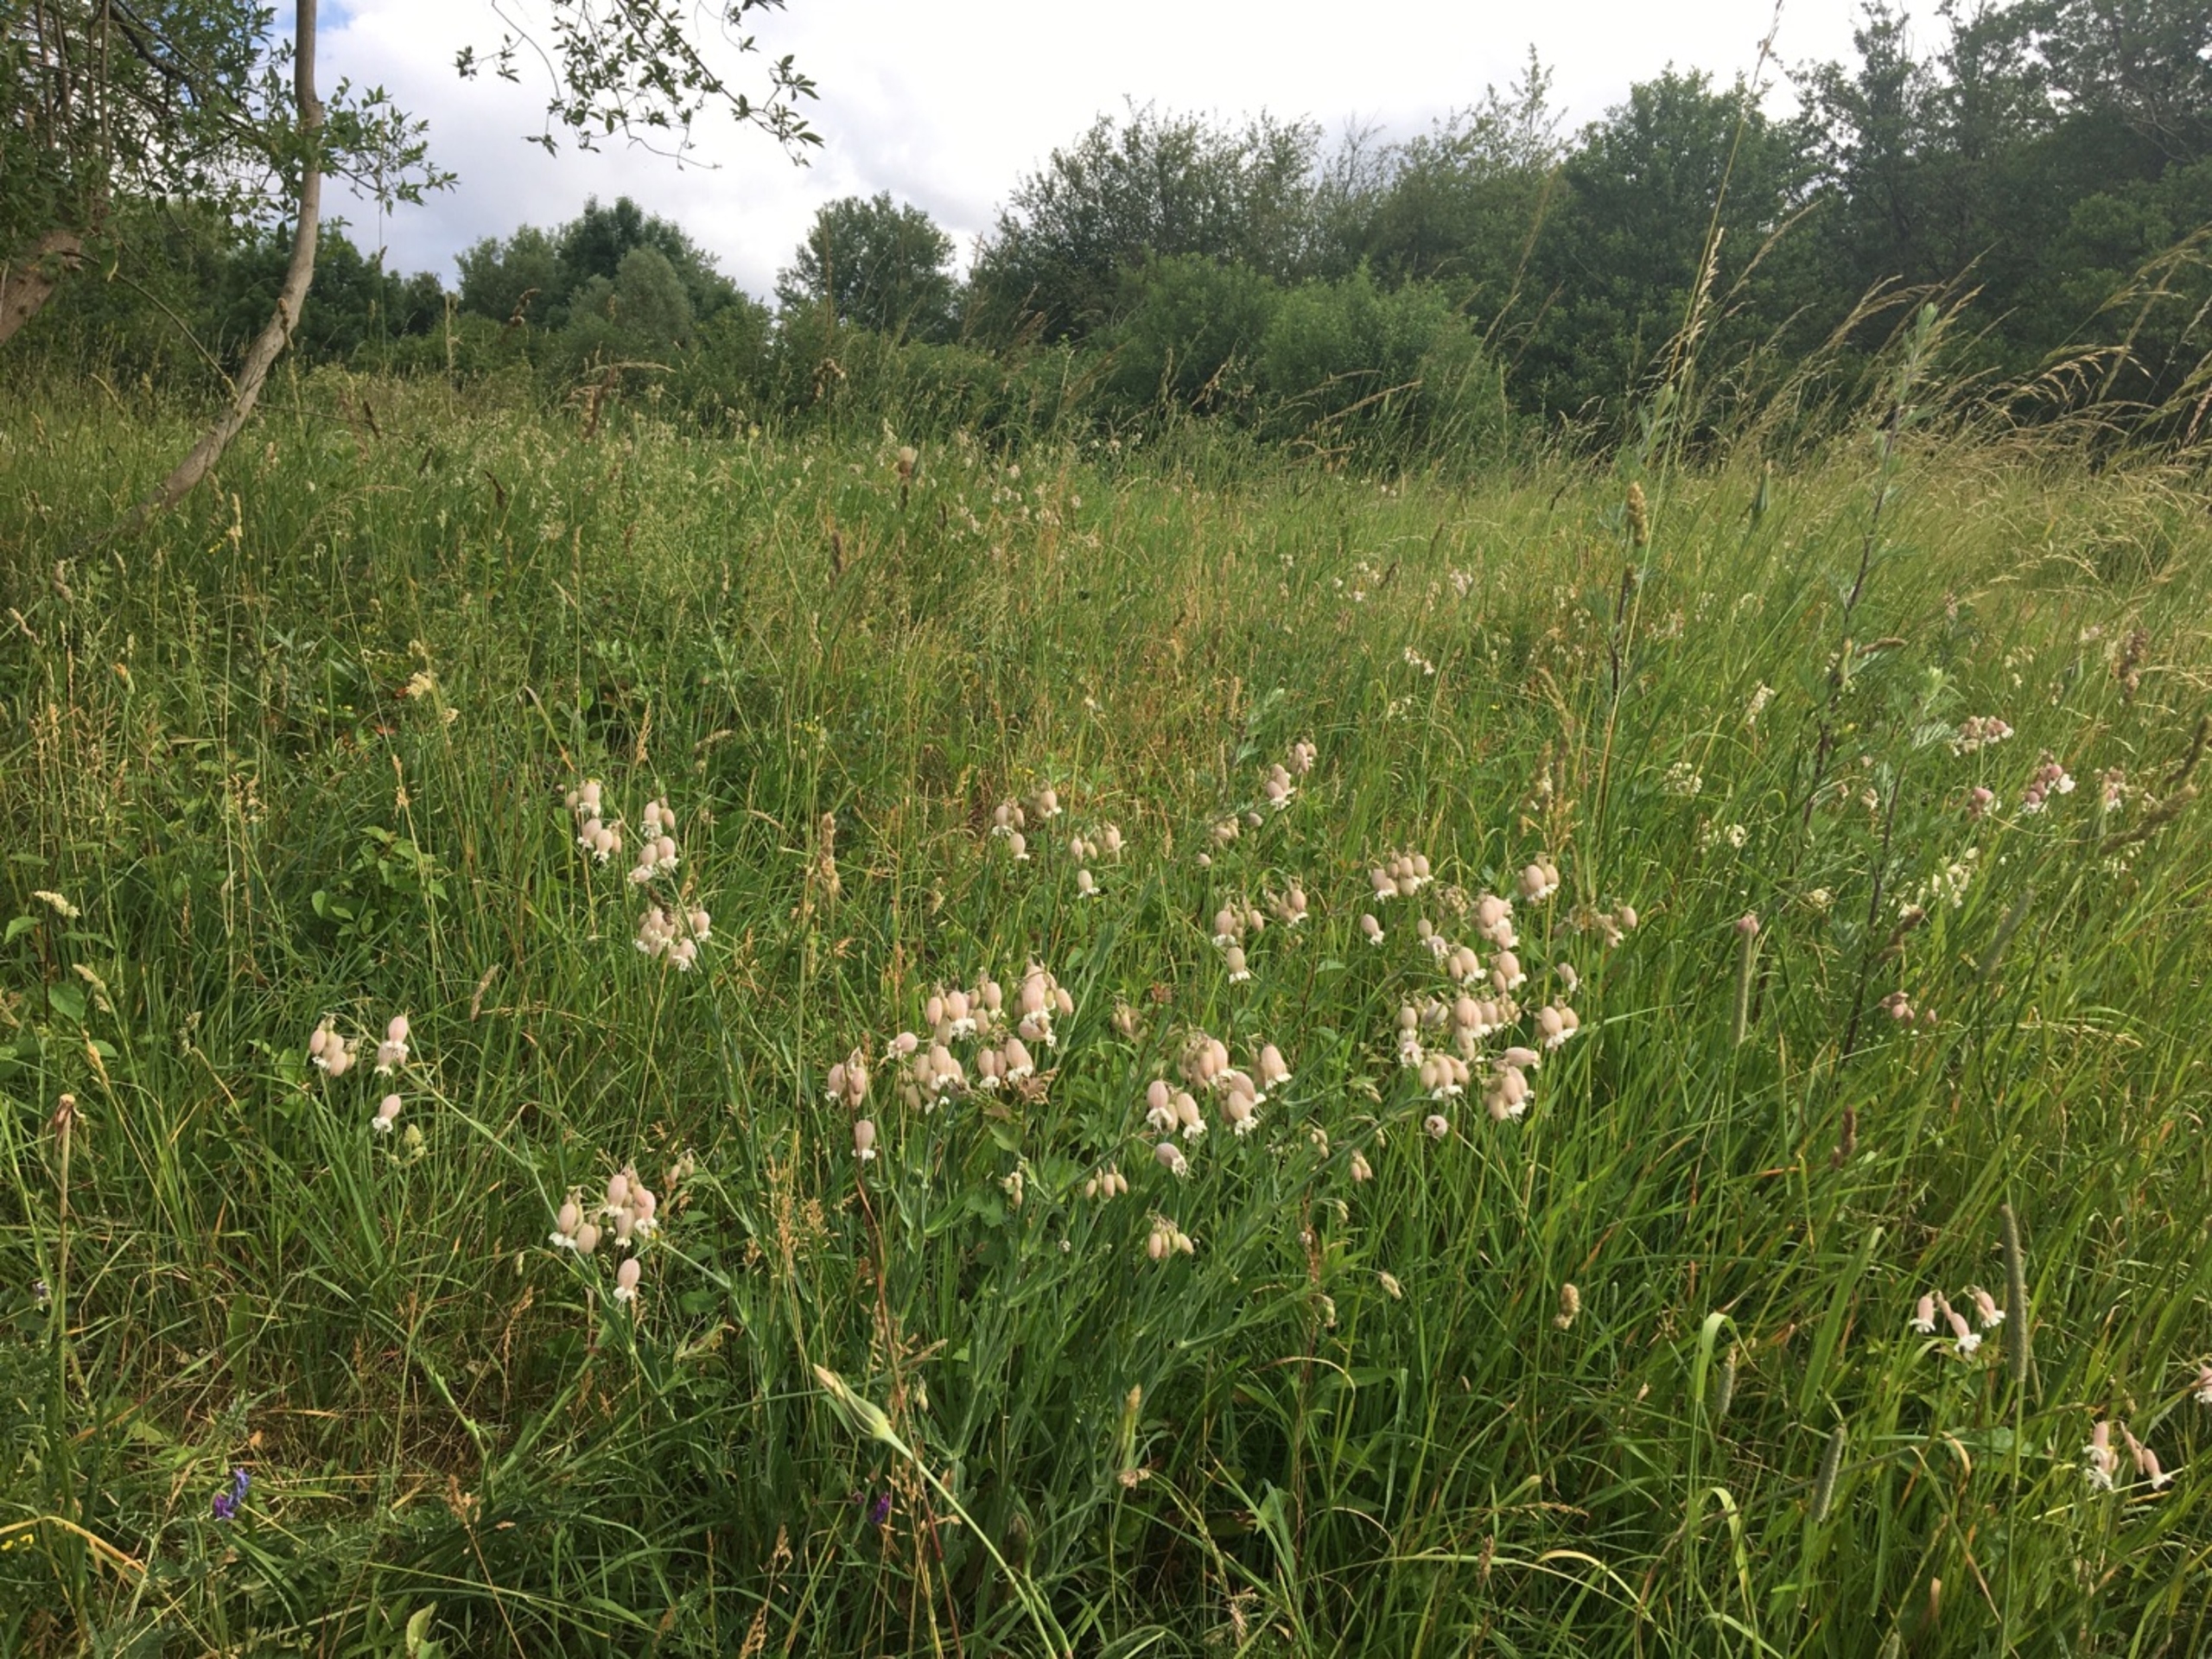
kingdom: Plantae
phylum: Tracheophyta
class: Magnoliopsida
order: Caryophyllales
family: Caryophyllaceae
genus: Silene
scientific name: Silene vulgaris
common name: Blæresmælde
